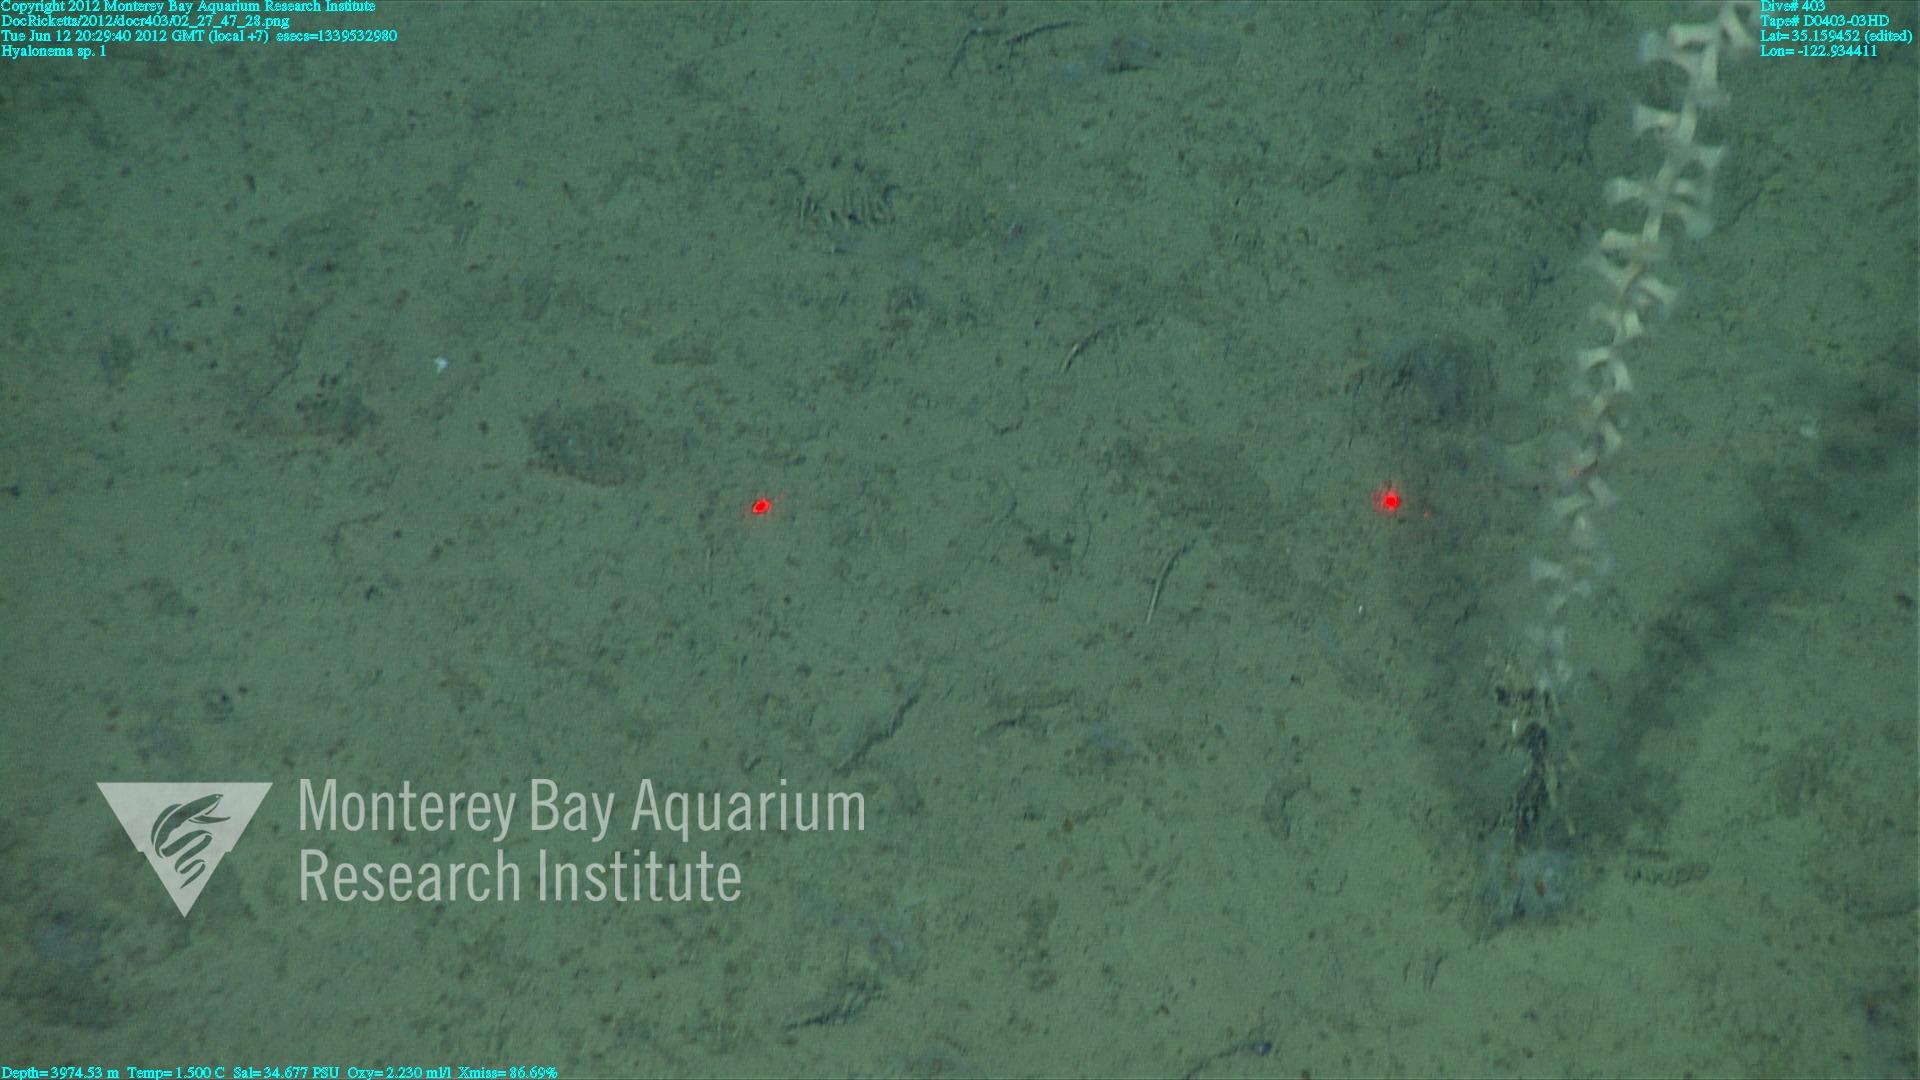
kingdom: Animalia
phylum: Porifera
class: Hexactinellida
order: Amphidiscosida
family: Hyalonematidae
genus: Hyalonema
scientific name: Hyalonema
